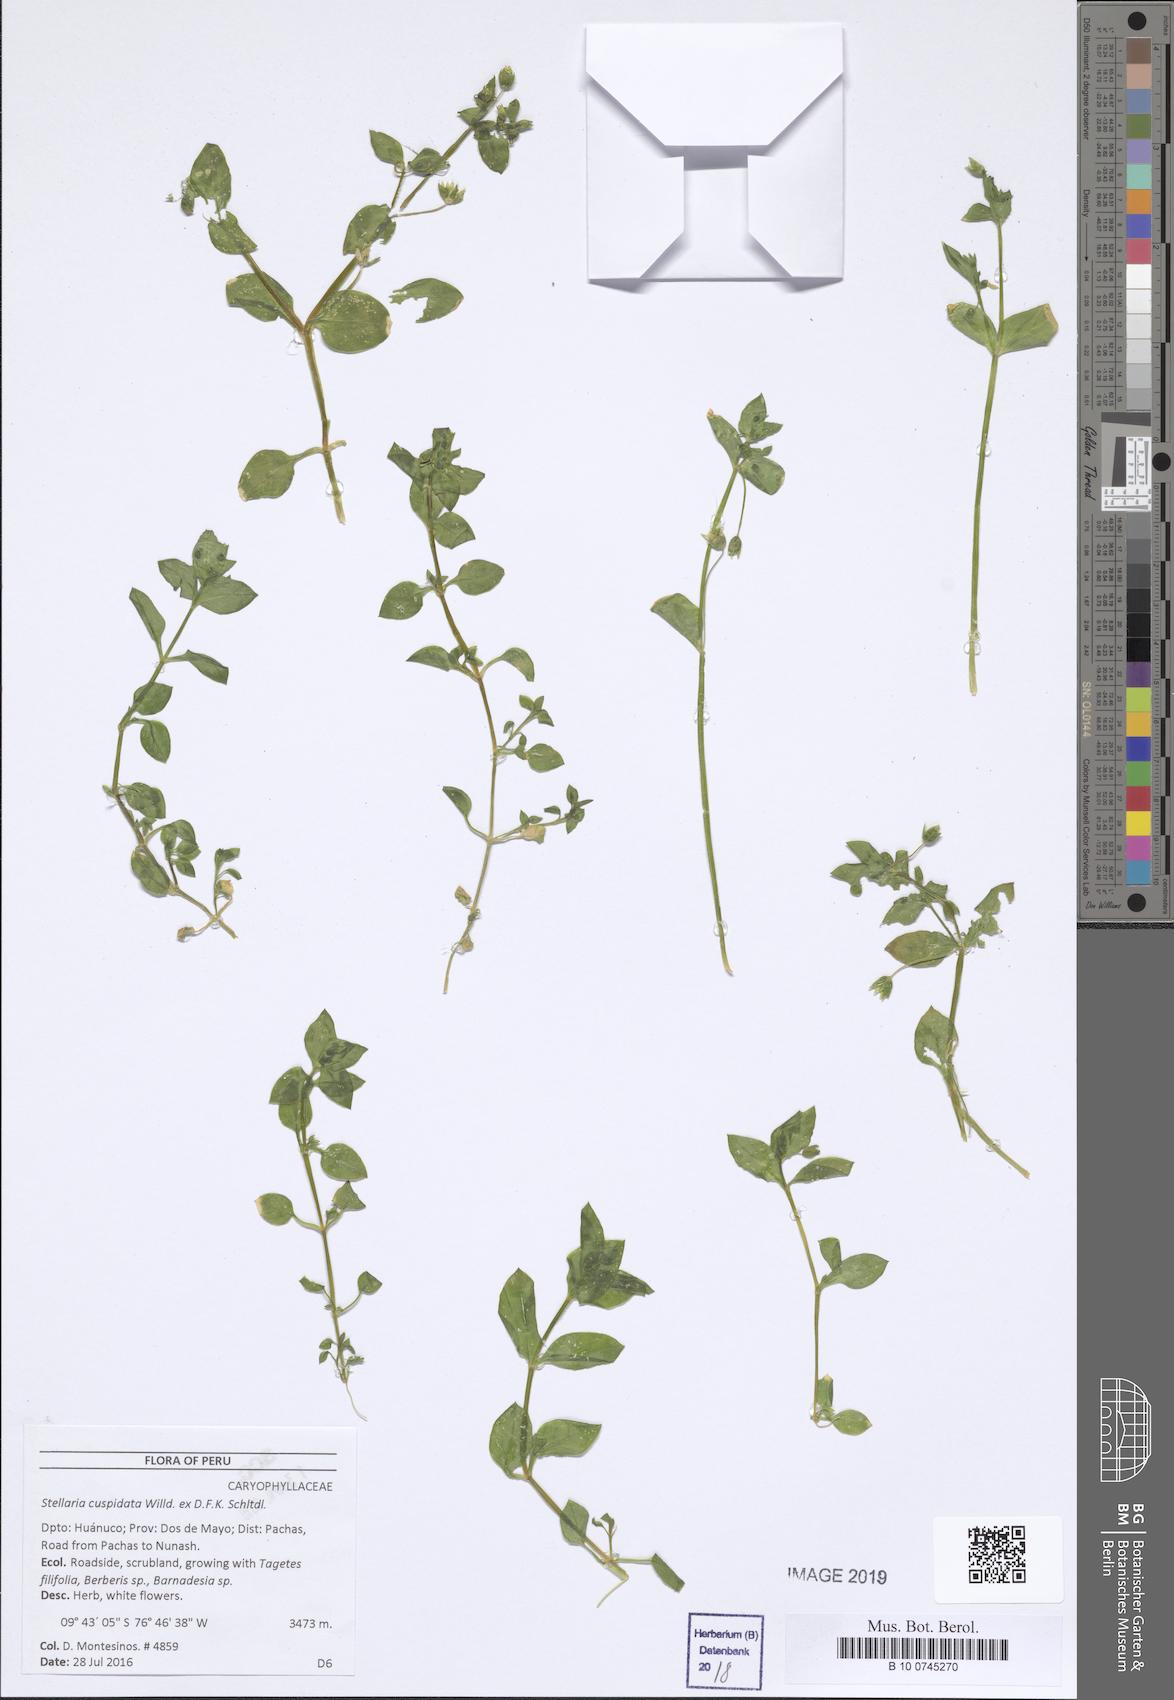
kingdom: Plantae
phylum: Tracheophyta
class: Magnoliopsida
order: Caryophyllales
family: Caryophyllaceae
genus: Stellaria
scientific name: Stellaria cuspidata
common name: Mexican chickweed
